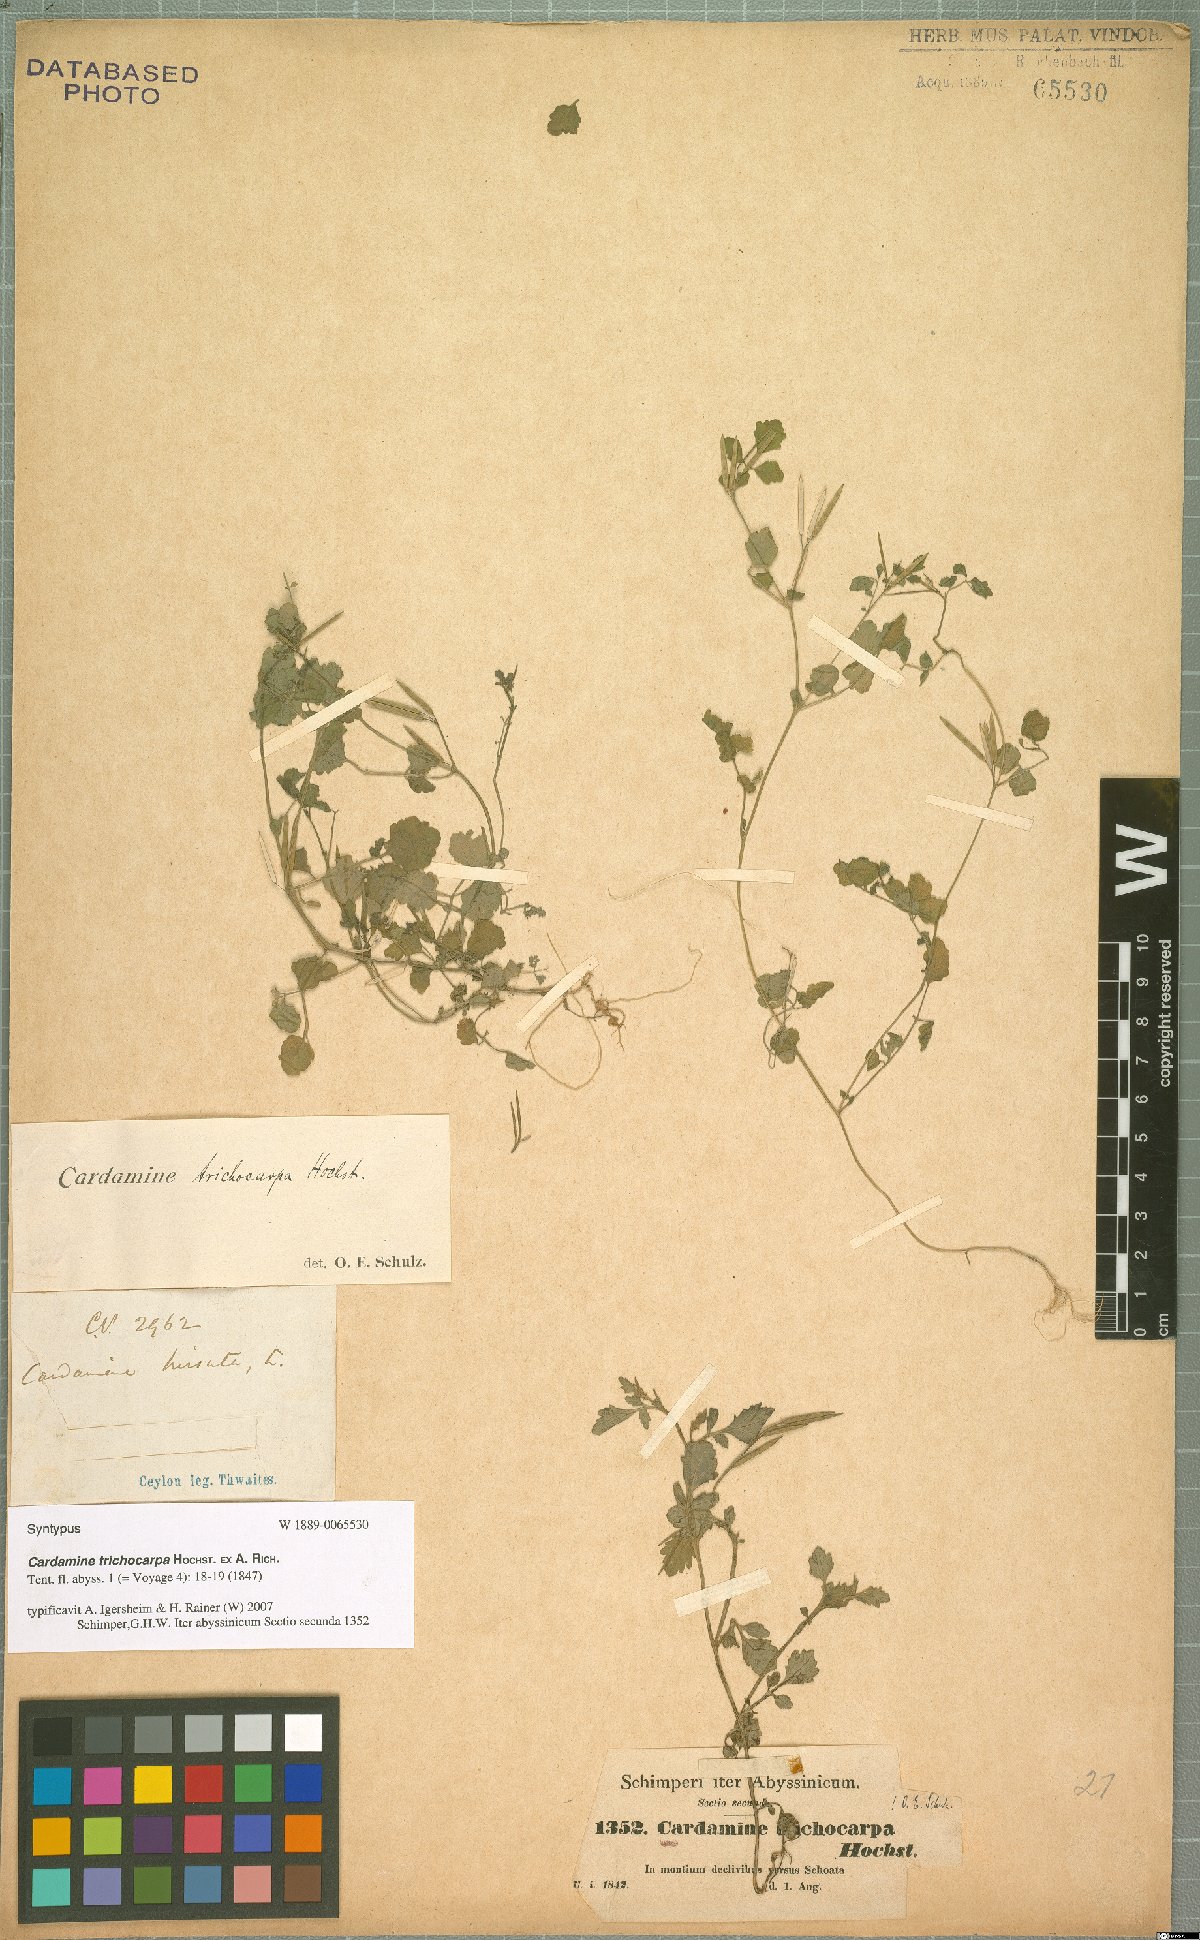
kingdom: Plantae
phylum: Tracheophyta
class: Magnoliopsida
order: Brassicales
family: Brassicaceae
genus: Cardamine
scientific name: Cardamine trichocarpa
